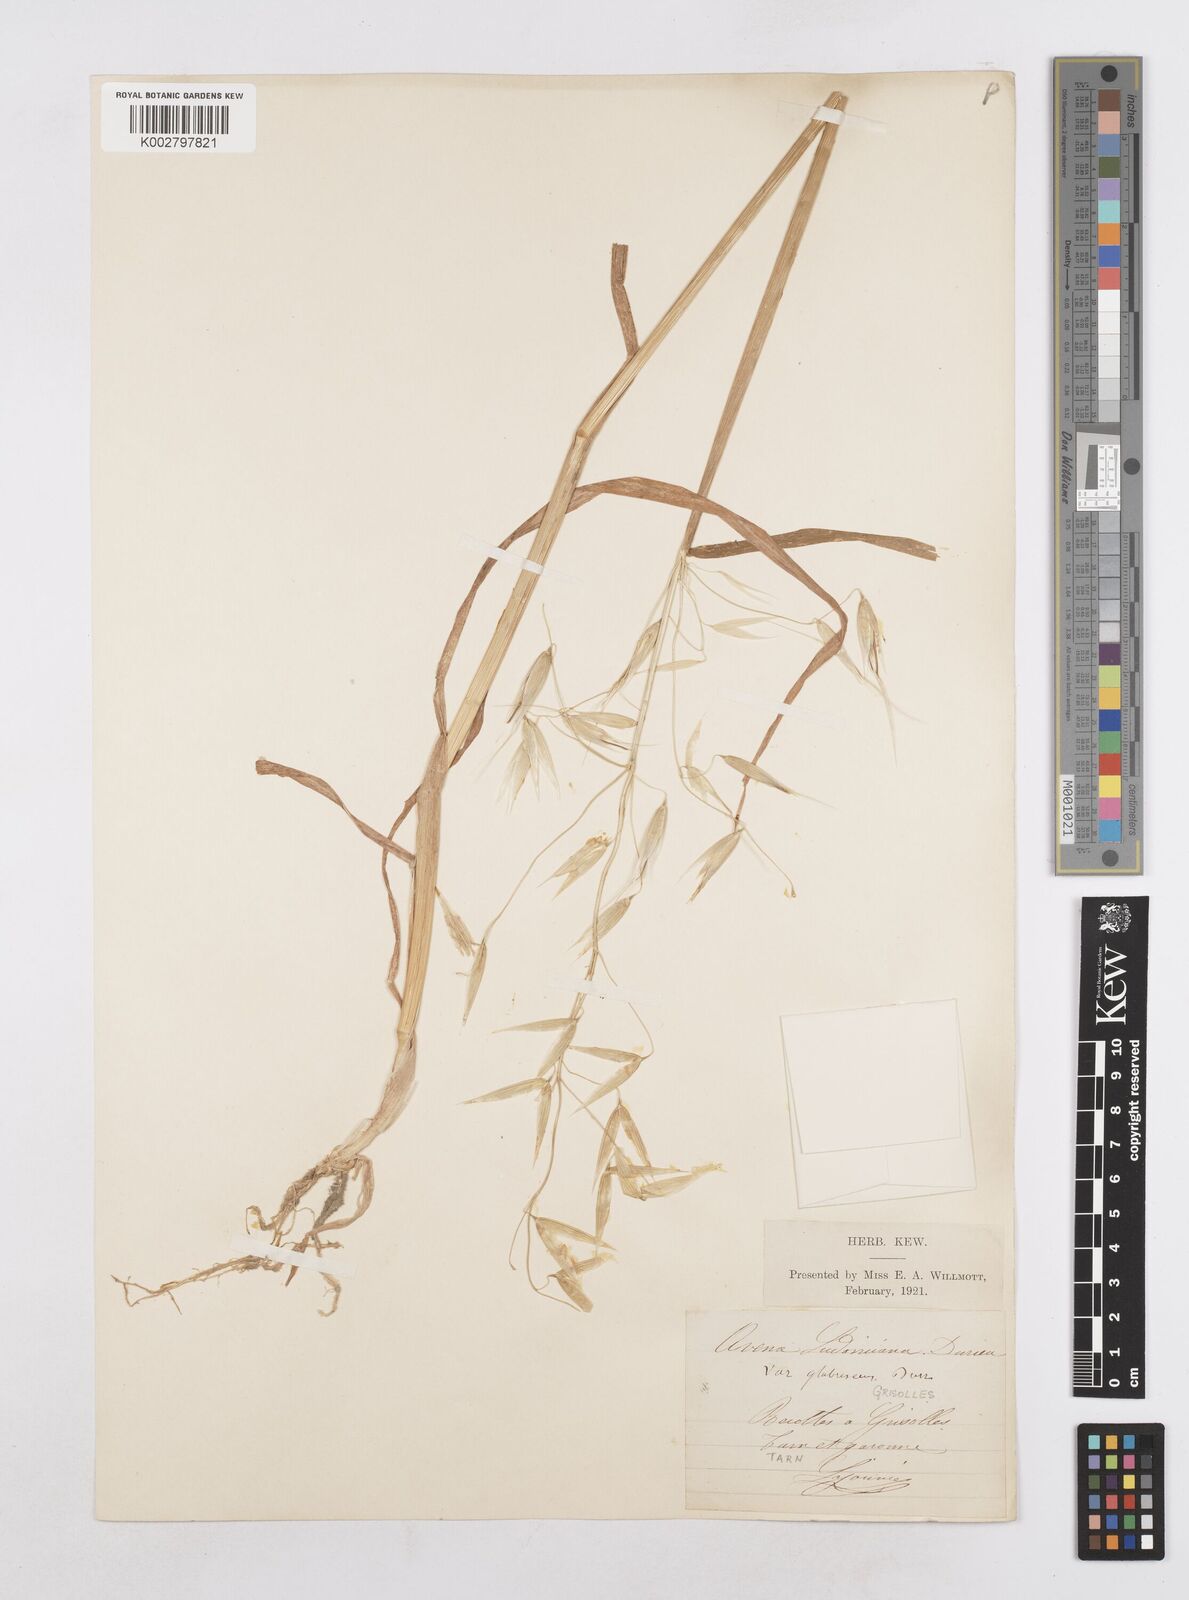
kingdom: Plantae
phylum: Tracheophyta
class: Liliopsida
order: Poales
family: Poaceae
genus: Avena
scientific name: Avena sterilis
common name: Animated oat
